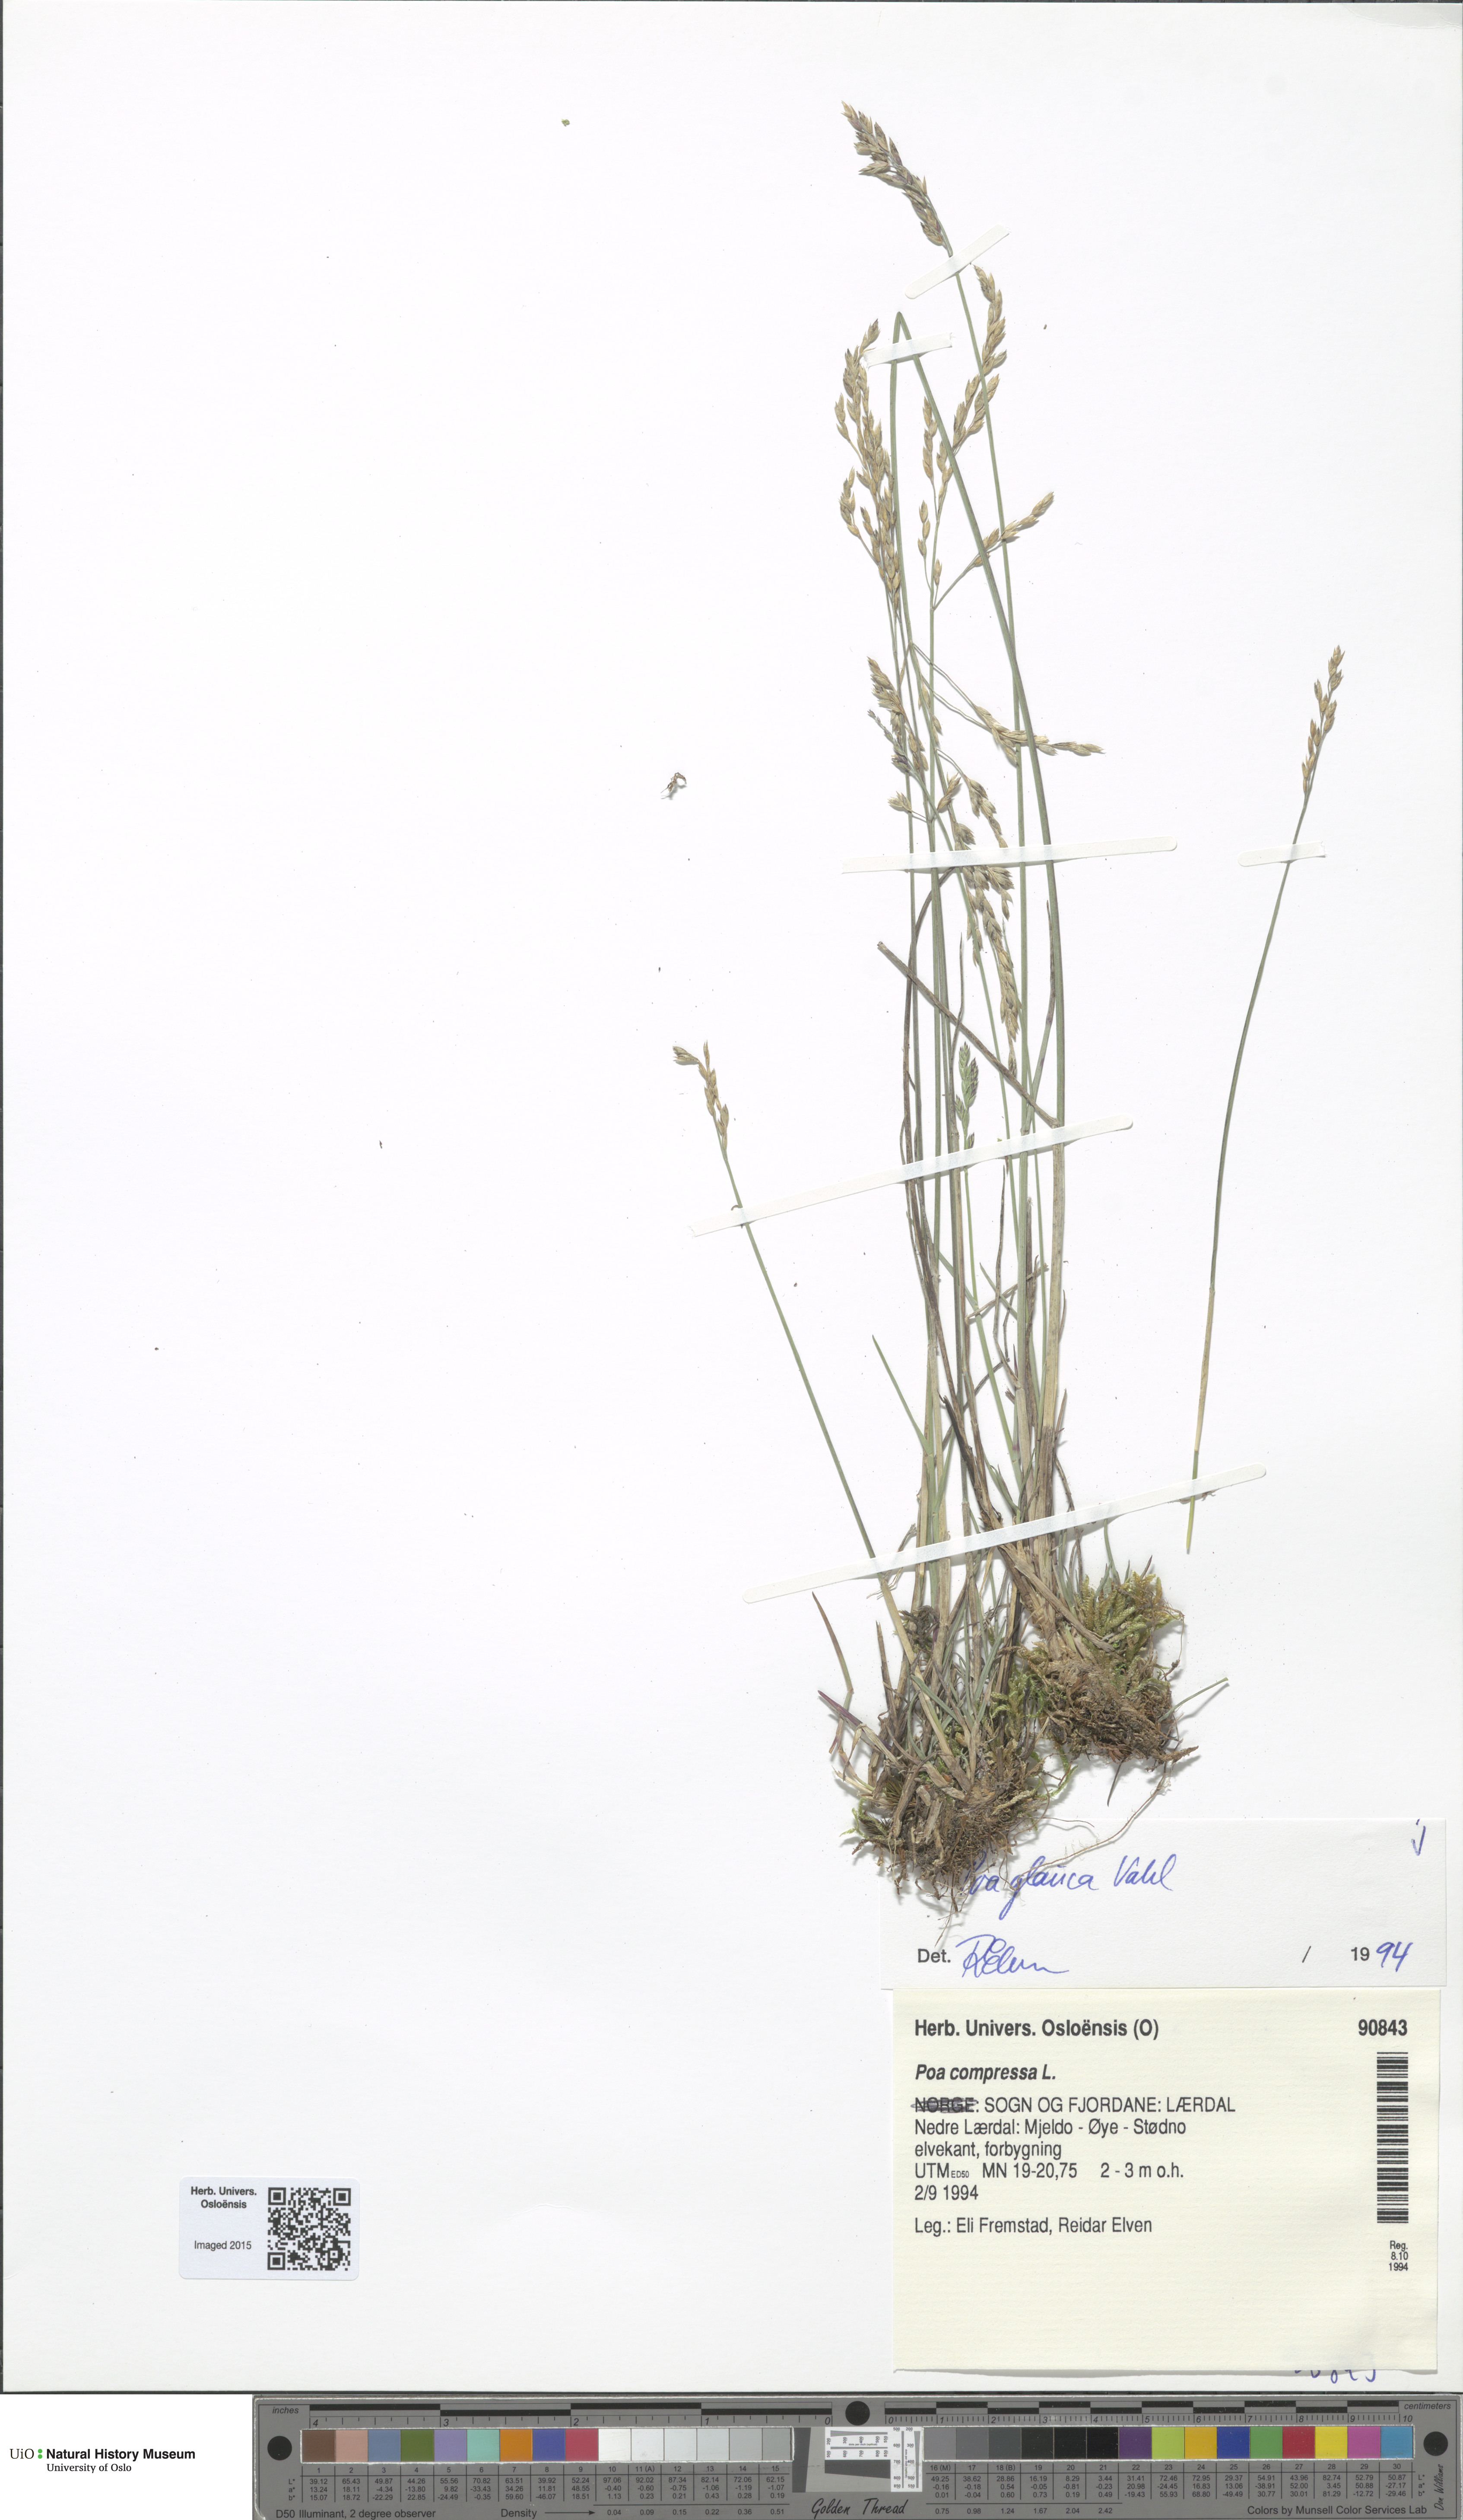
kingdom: Plantae
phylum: Tracheophyta
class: Liliopsida
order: Poales
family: Poaceae
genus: Poa
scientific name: Poa glauca
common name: Glaucous bluegrass
